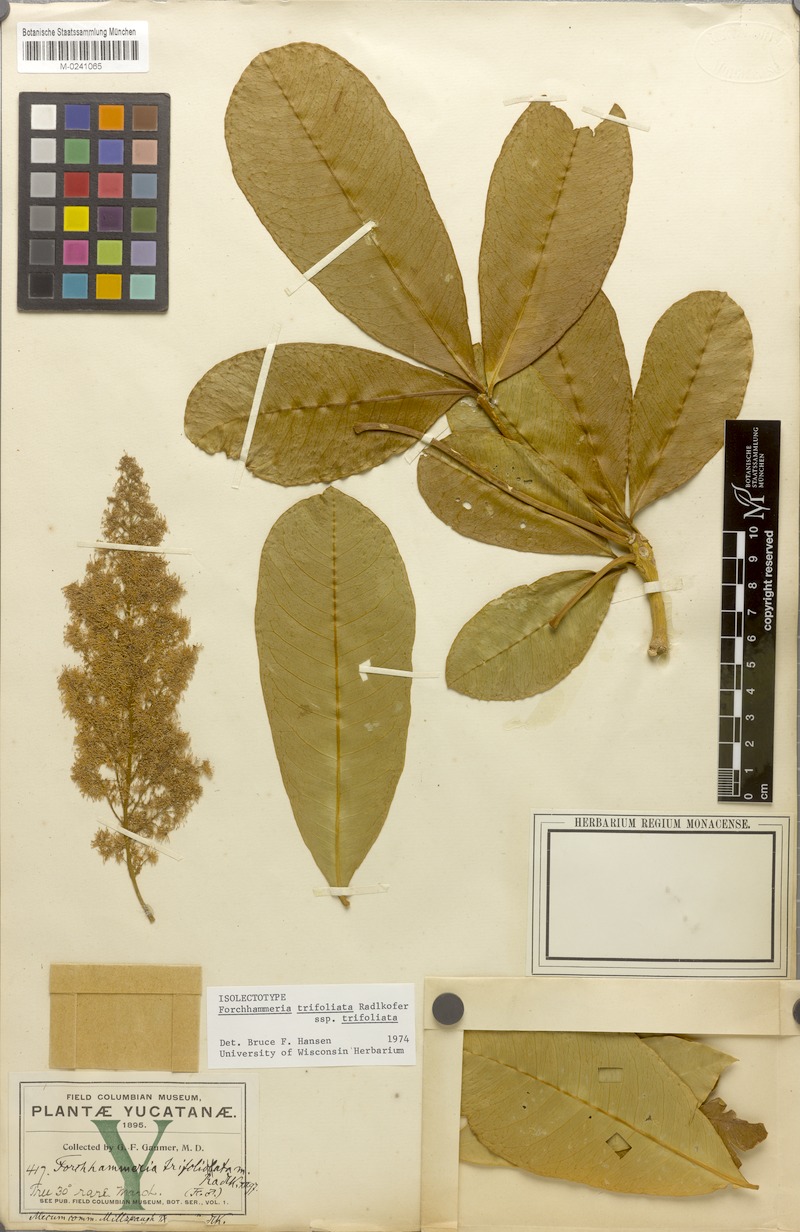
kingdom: Plantae
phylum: Tracheophyta
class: Magnoliopsida
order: Brassicales
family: Stixaceae
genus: Forchhammeria
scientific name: Forchhammeria trifoliata
